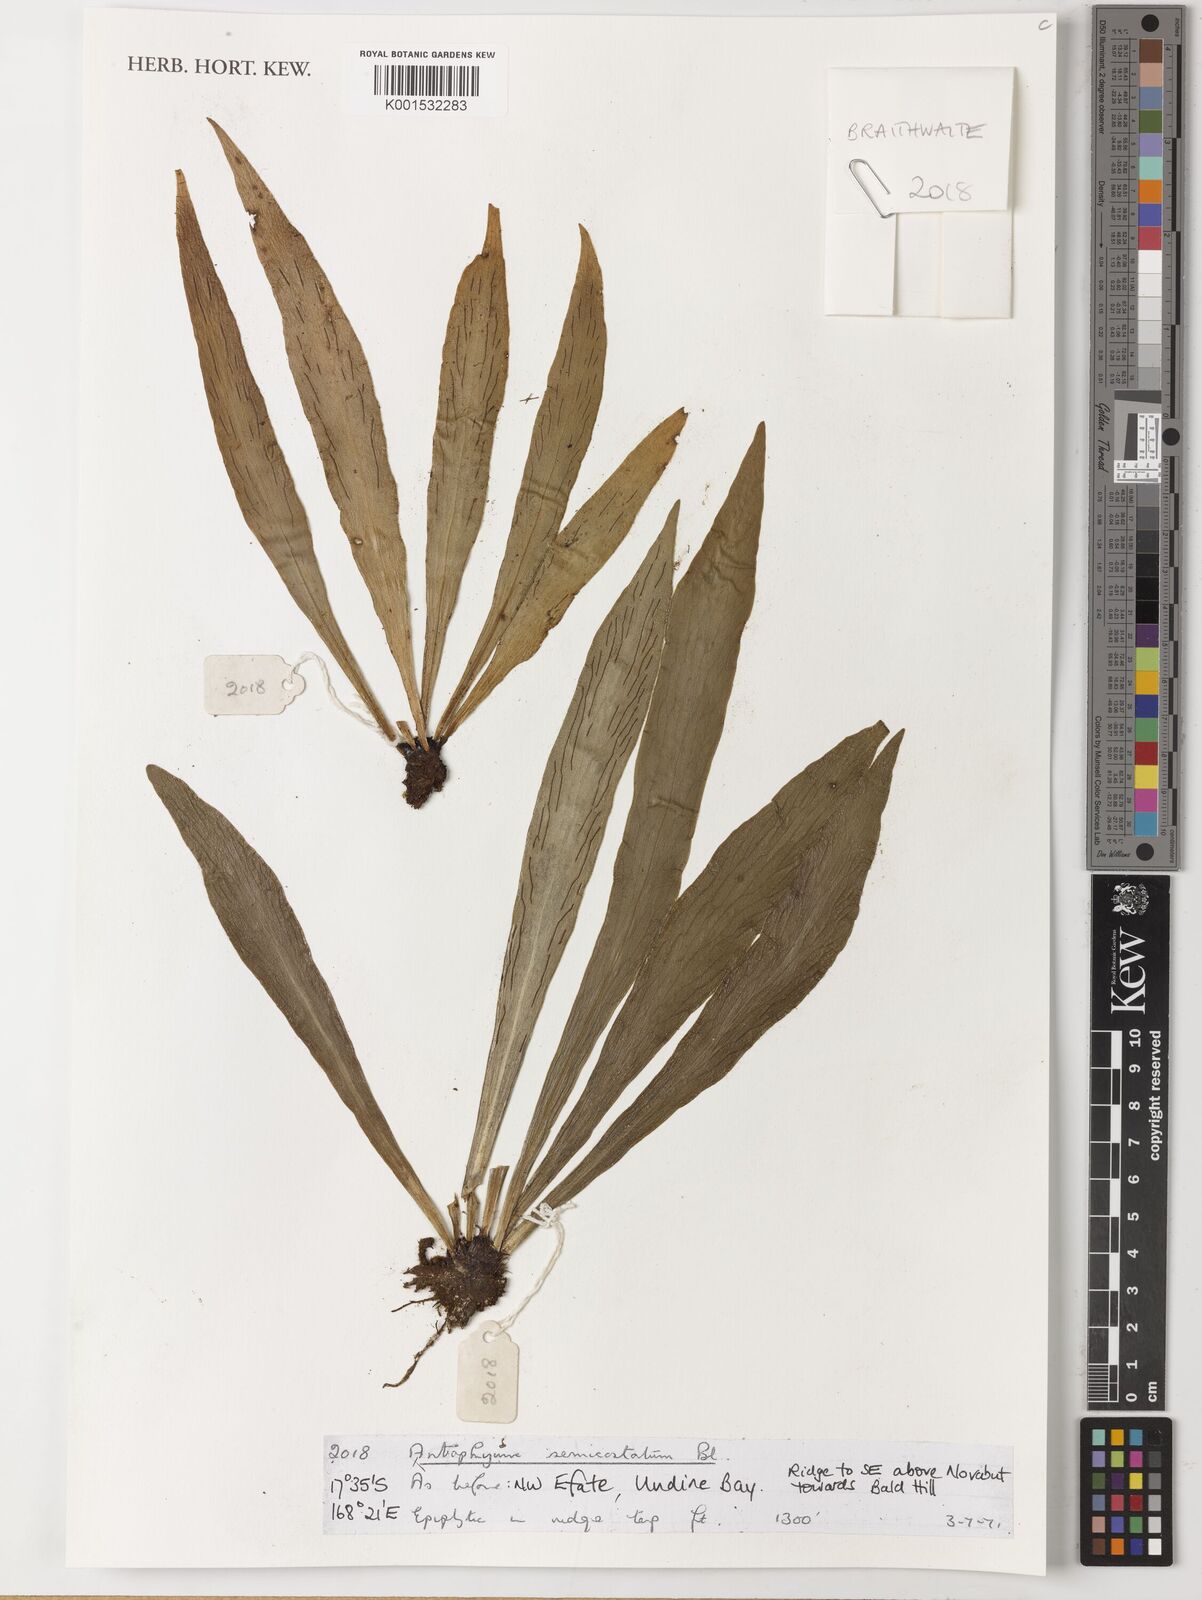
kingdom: Plantae
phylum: Tracheophyta
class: Polypodiopsida
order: Polypodiales
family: Pteridaceae
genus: Antrophyum
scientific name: Antrophyum semicostatum
